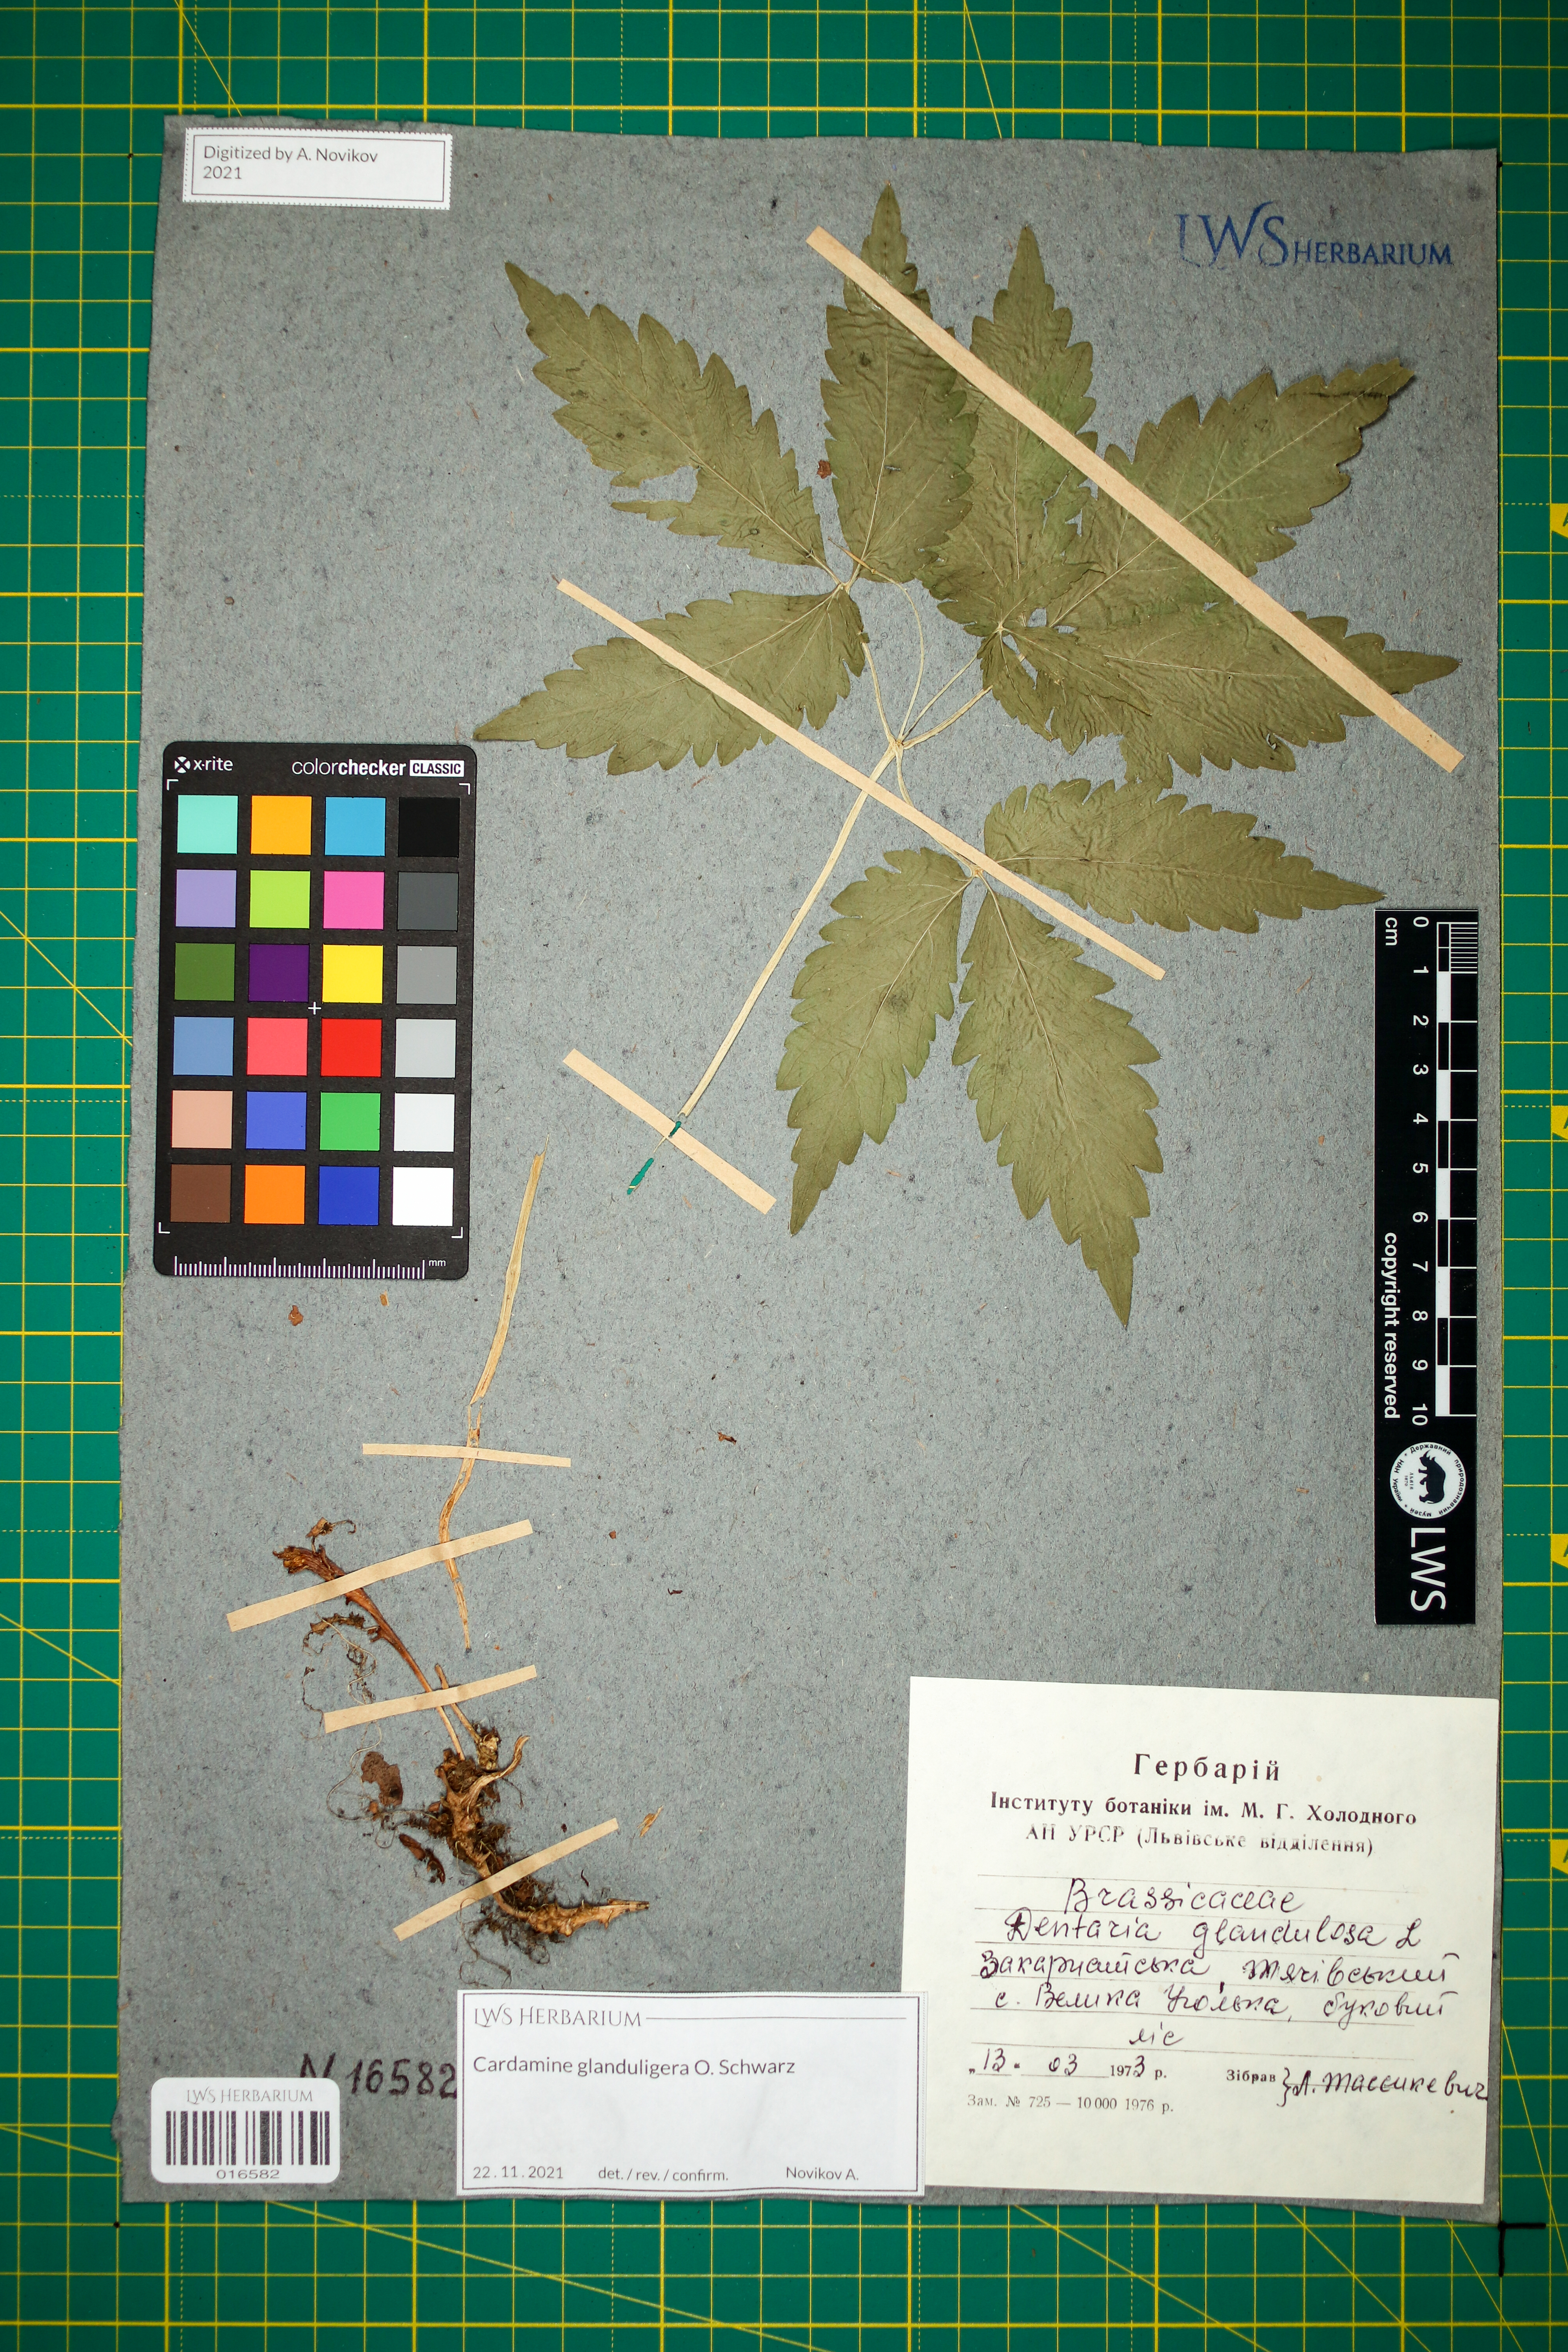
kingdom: Plantae
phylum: Tracheophyta
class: Magnoliopsida
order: Brassicales
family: Brassicaceae
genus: Cardamine
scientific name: Cardamine glanduligera
